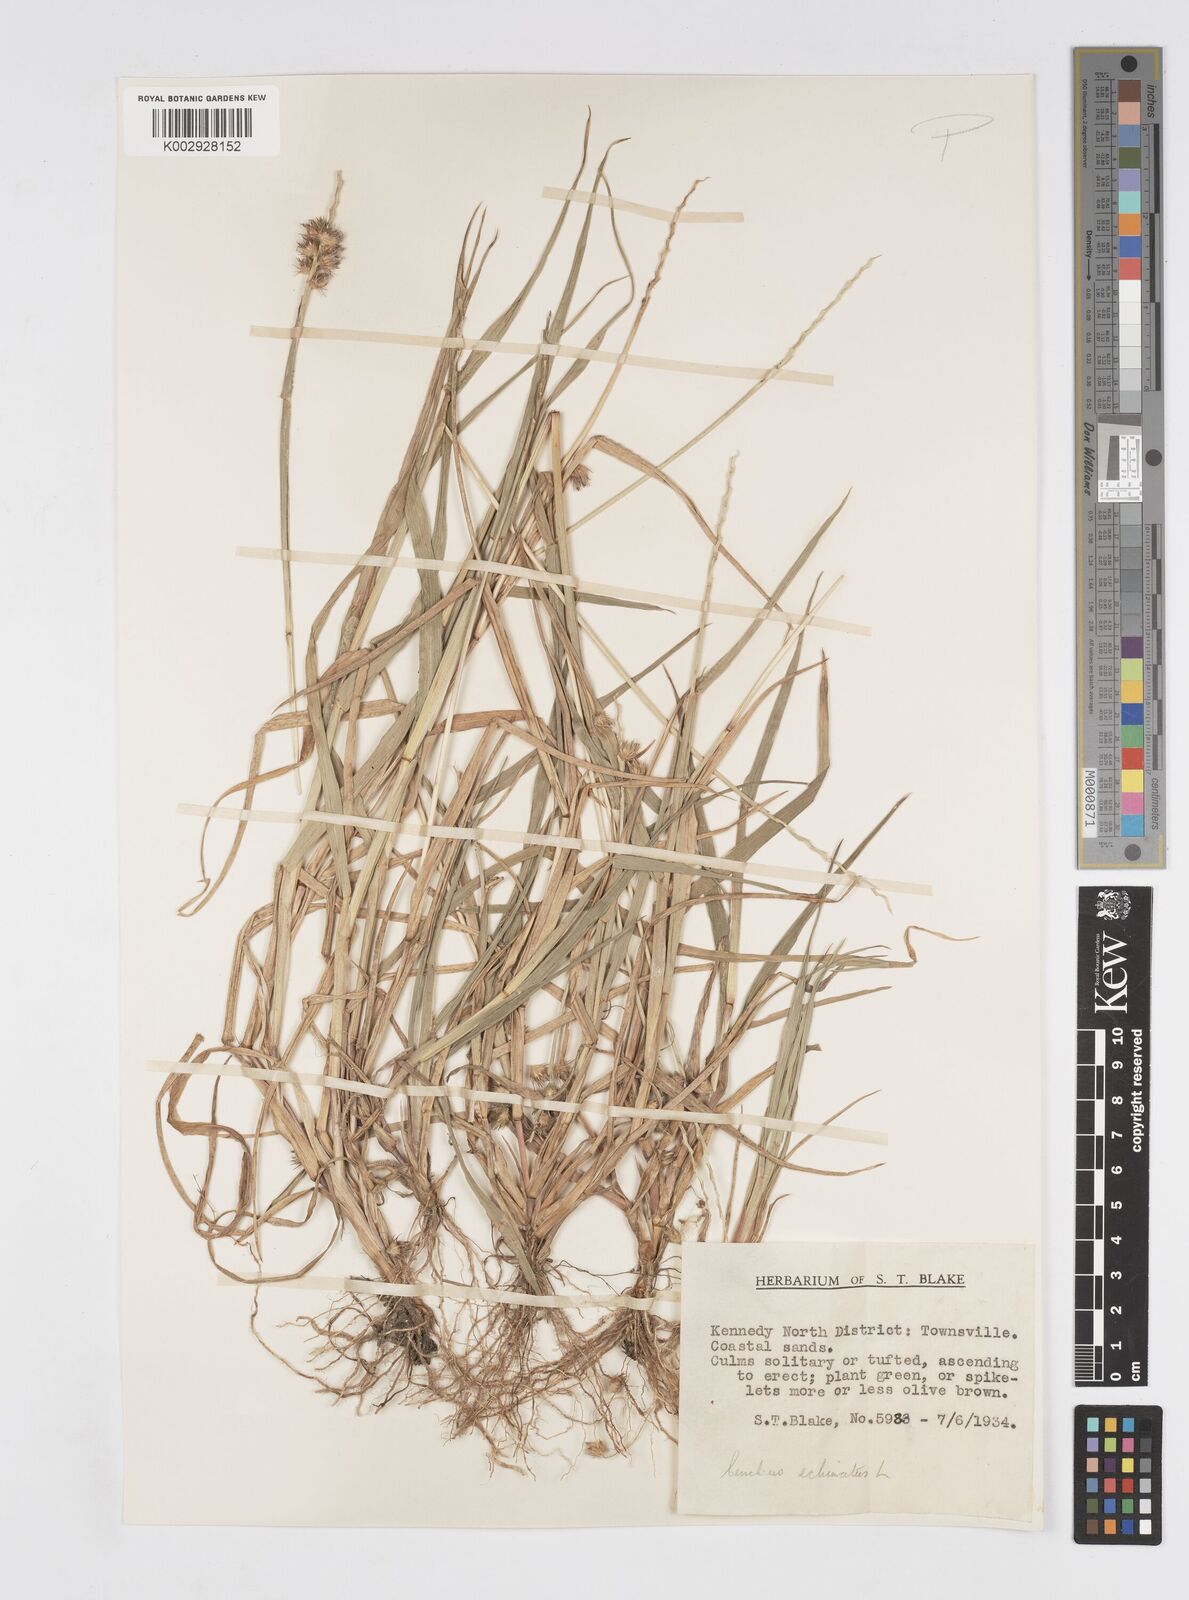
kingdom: Plantae
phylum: Tracheophyta
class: Liliopsida
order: Poales
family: Poaceae
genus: Cenchrus
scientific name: Cenchrus echinatus
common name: Southern sandbur
